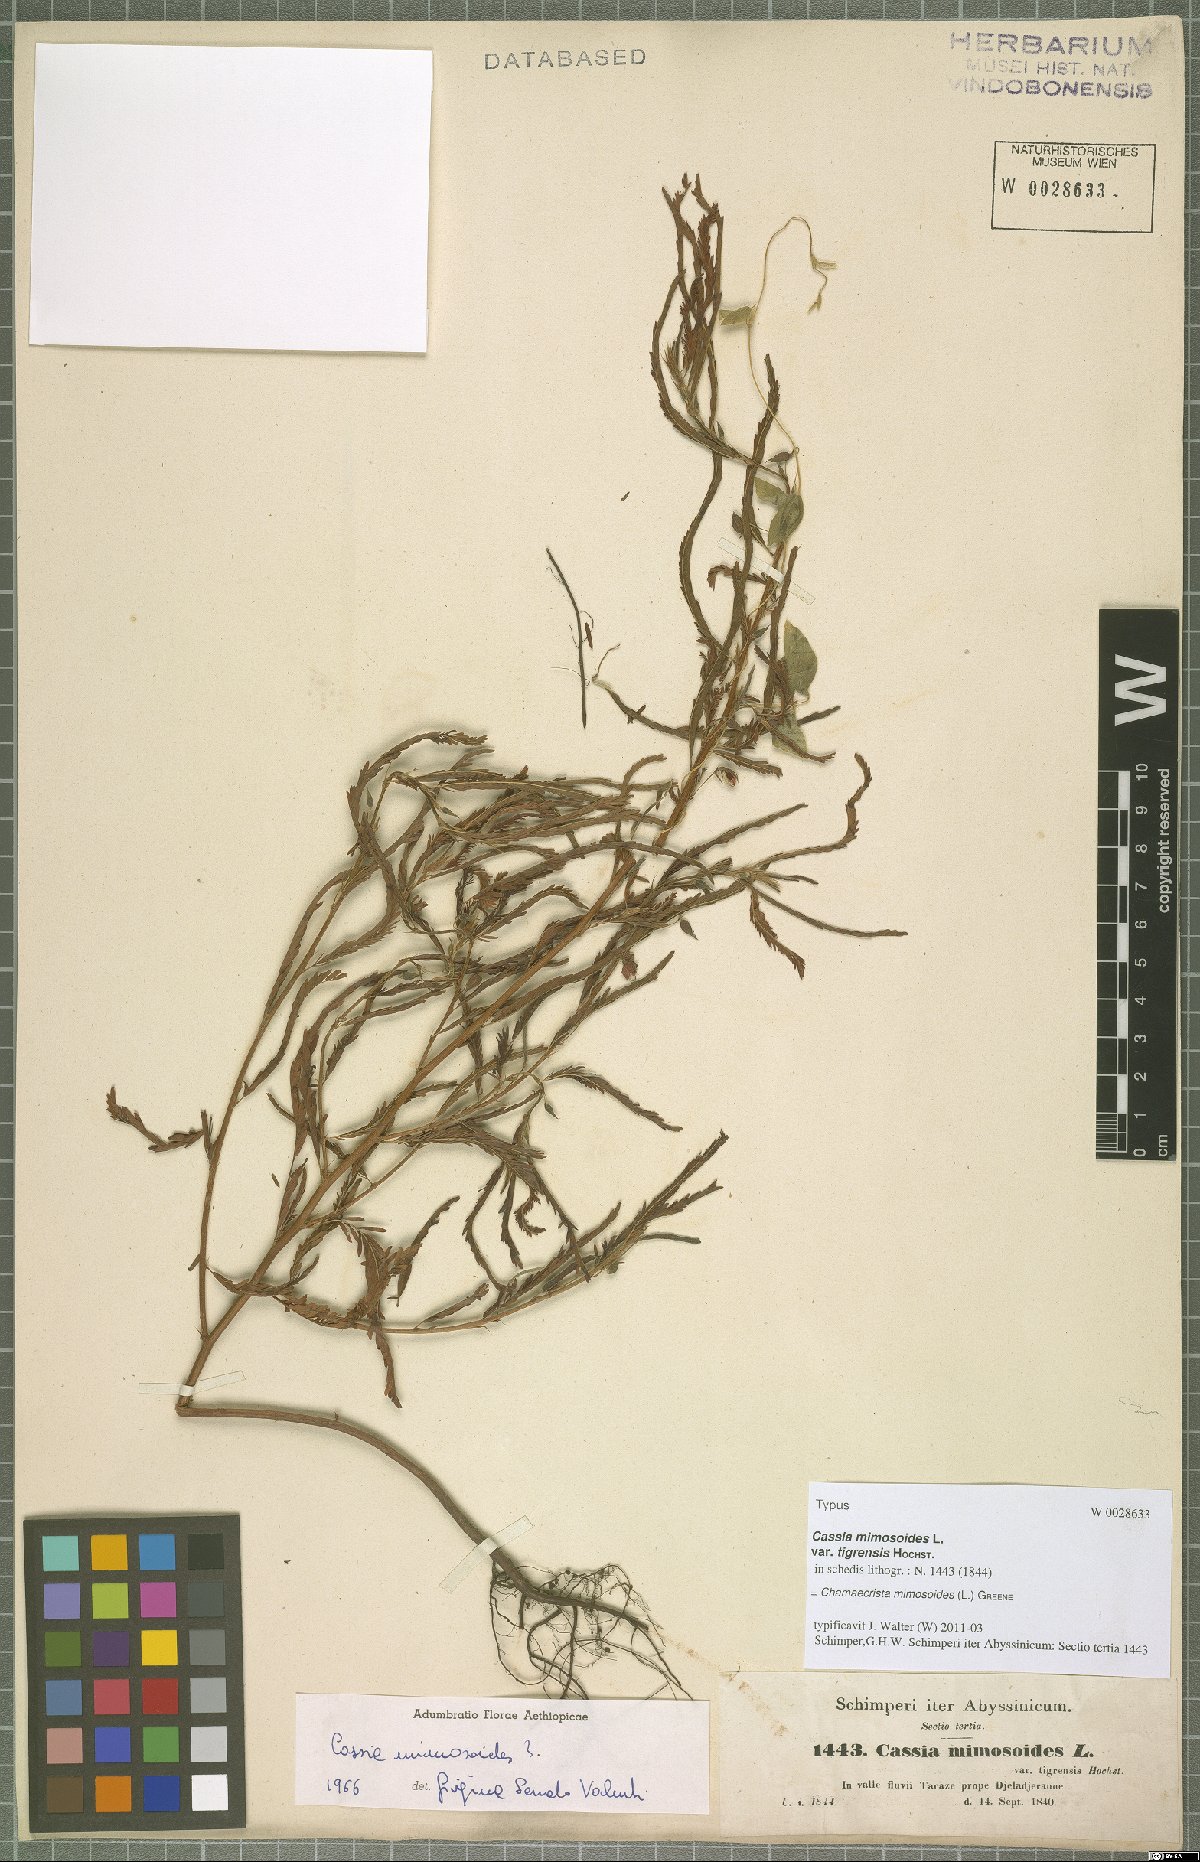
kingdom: Plantae
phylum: Tracheophyta
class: Magnoliopsida
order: Fabales
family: Fabaceae
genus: Chamaecrista
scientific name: Chamaecrista mimosoides
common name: Fish-bone cassia
